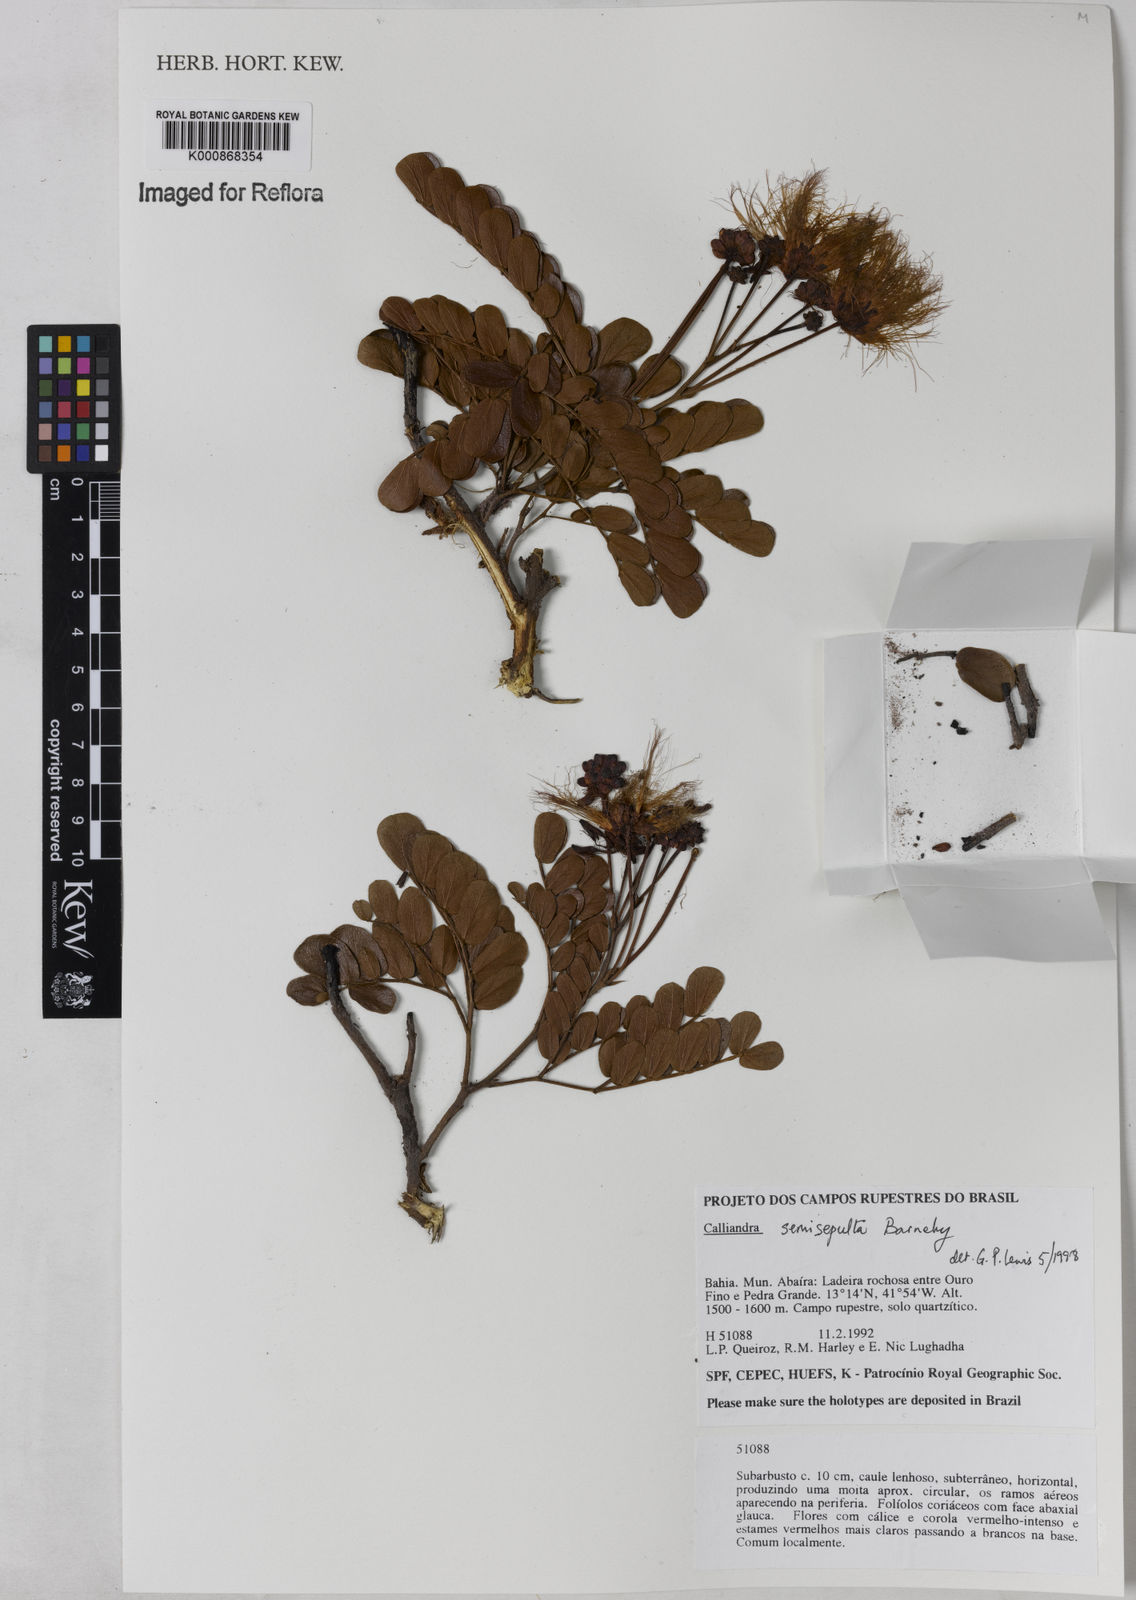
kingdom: Plantae
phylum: Tracheophyta
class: Magnoliopsida
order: Fabales
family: Fabaceae
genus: Calliandra
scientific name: Calliandra semisepulta
